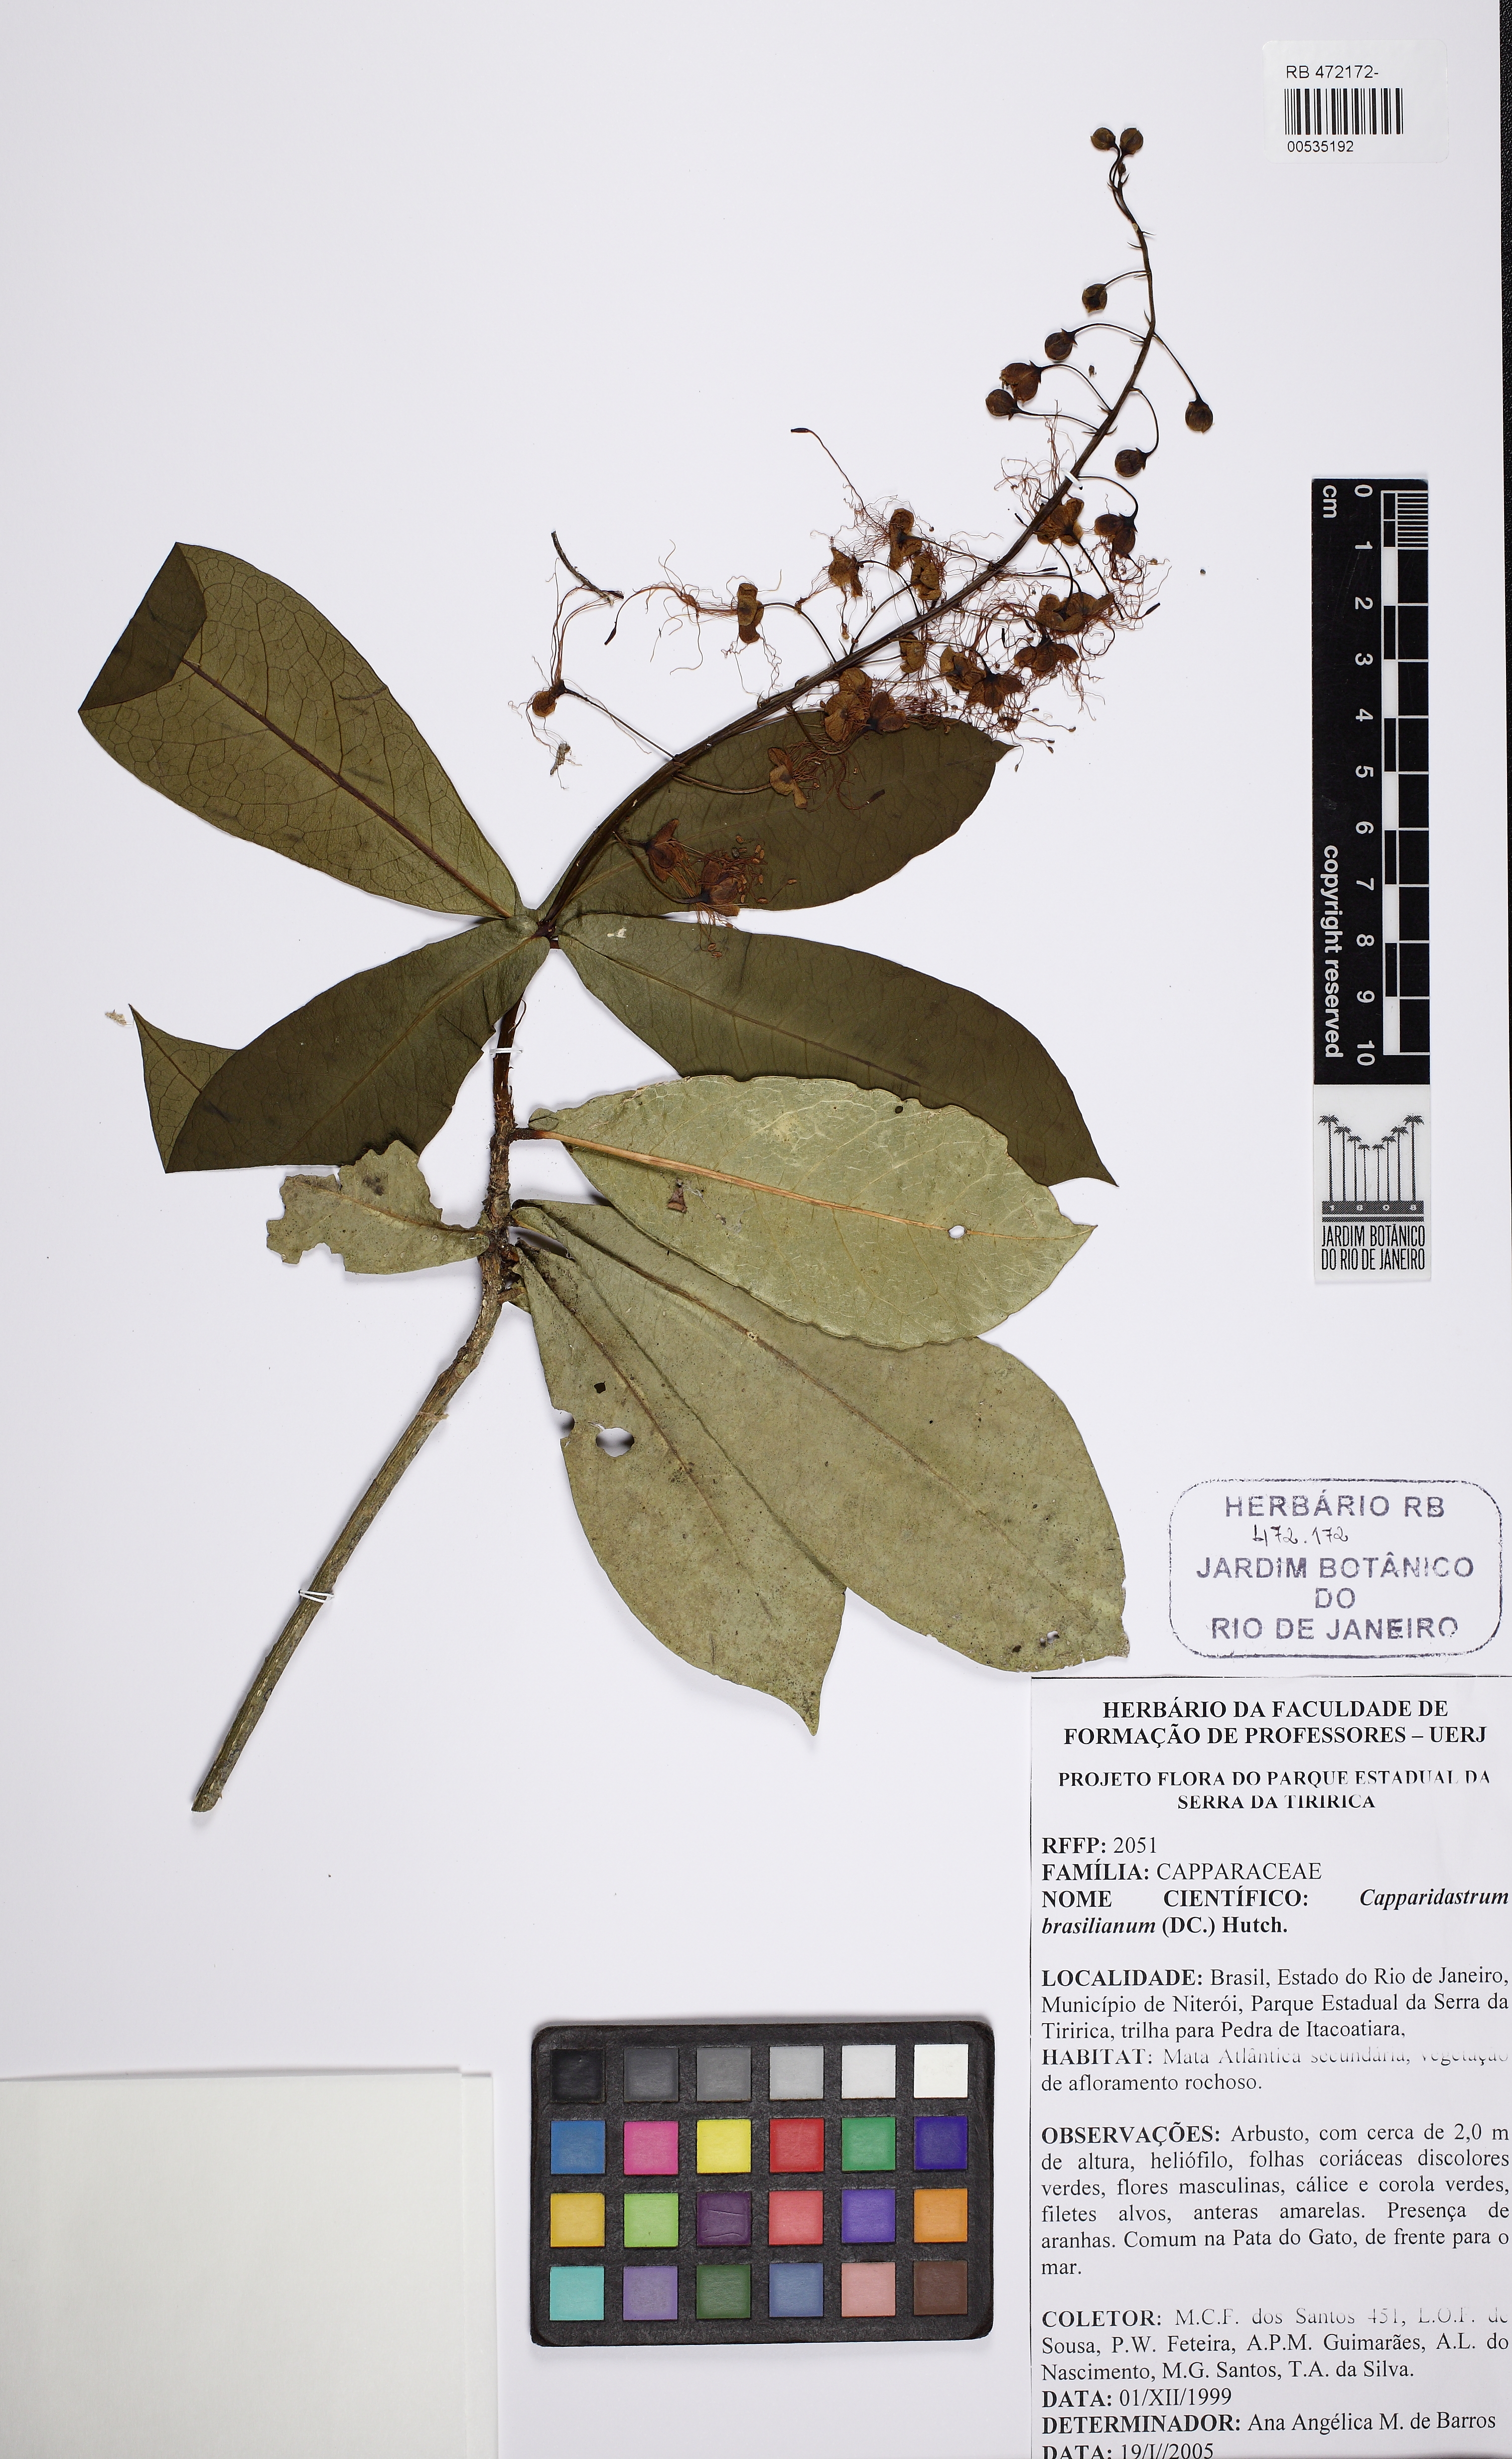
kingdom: Plantae
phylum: Tracheophyta
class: Magnoliopsida
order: Brassicales
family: Capparaceae
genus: Monilicarpa
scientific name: Monilicarpa brasiliana
